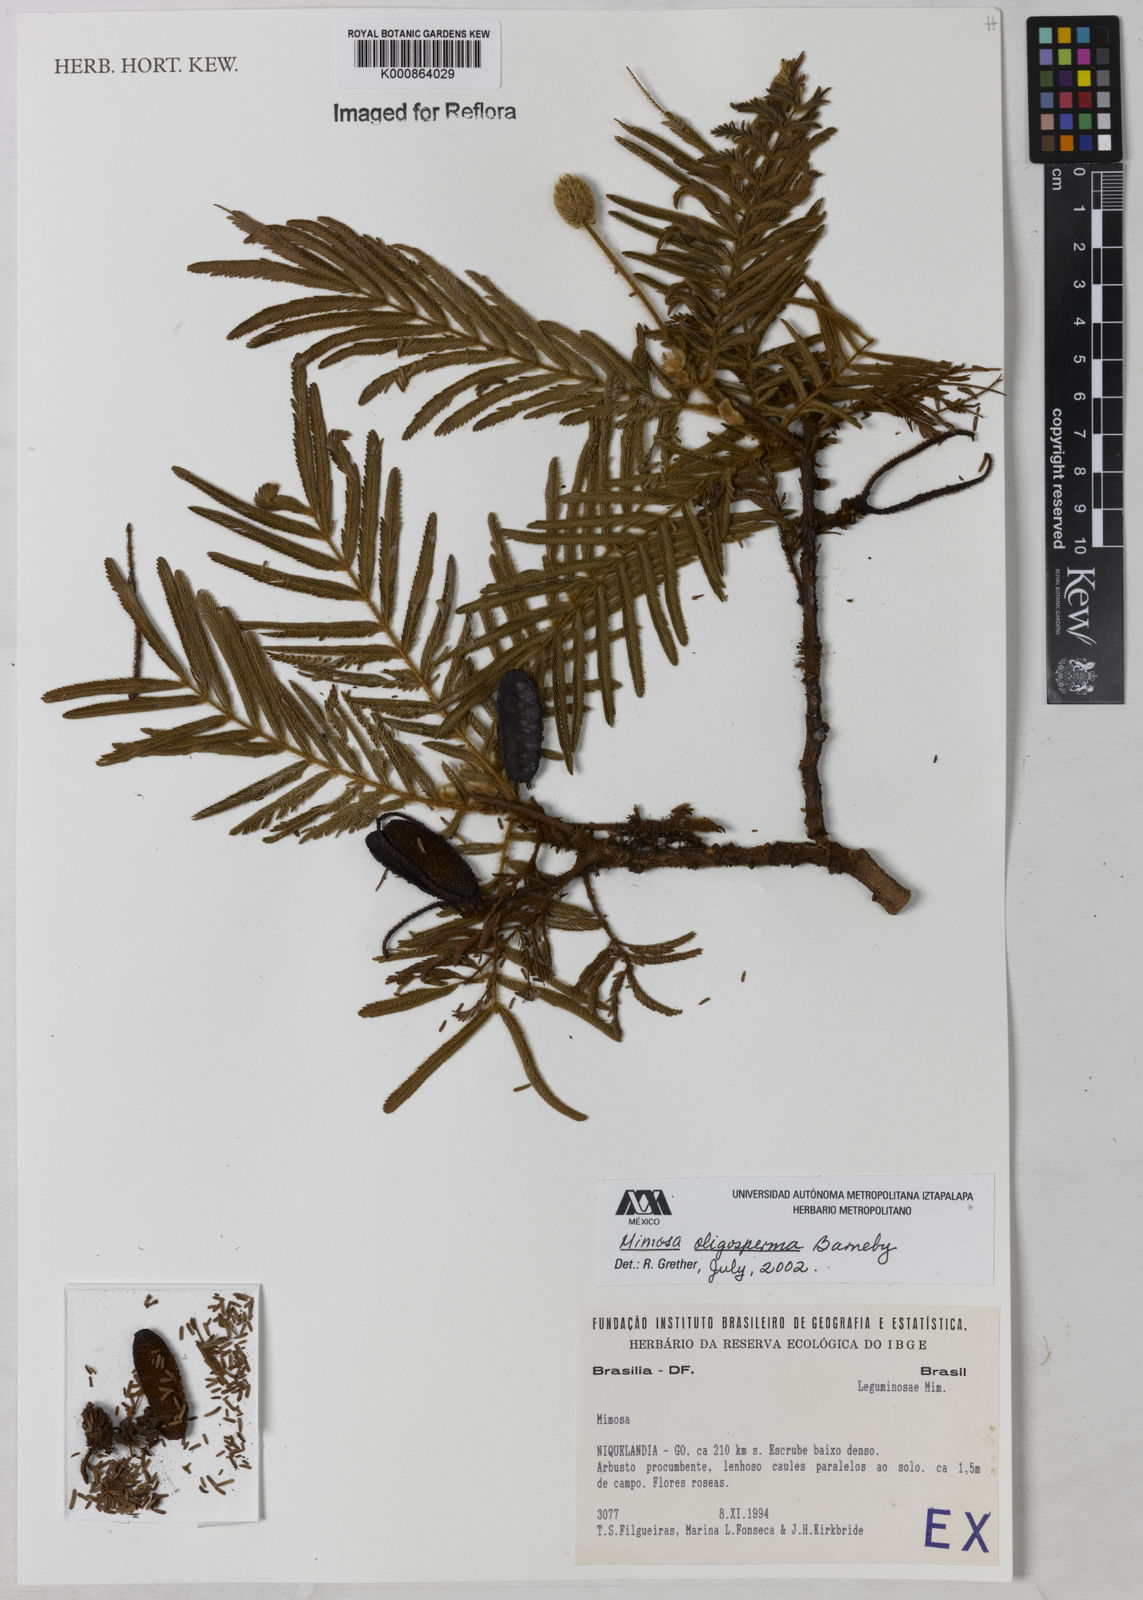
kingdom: Plantae
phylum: Tracheophyta
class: Magnoliopsida
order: Fabales
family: Fabaceae
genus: Mimosa
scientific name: Mimosa albolanata
